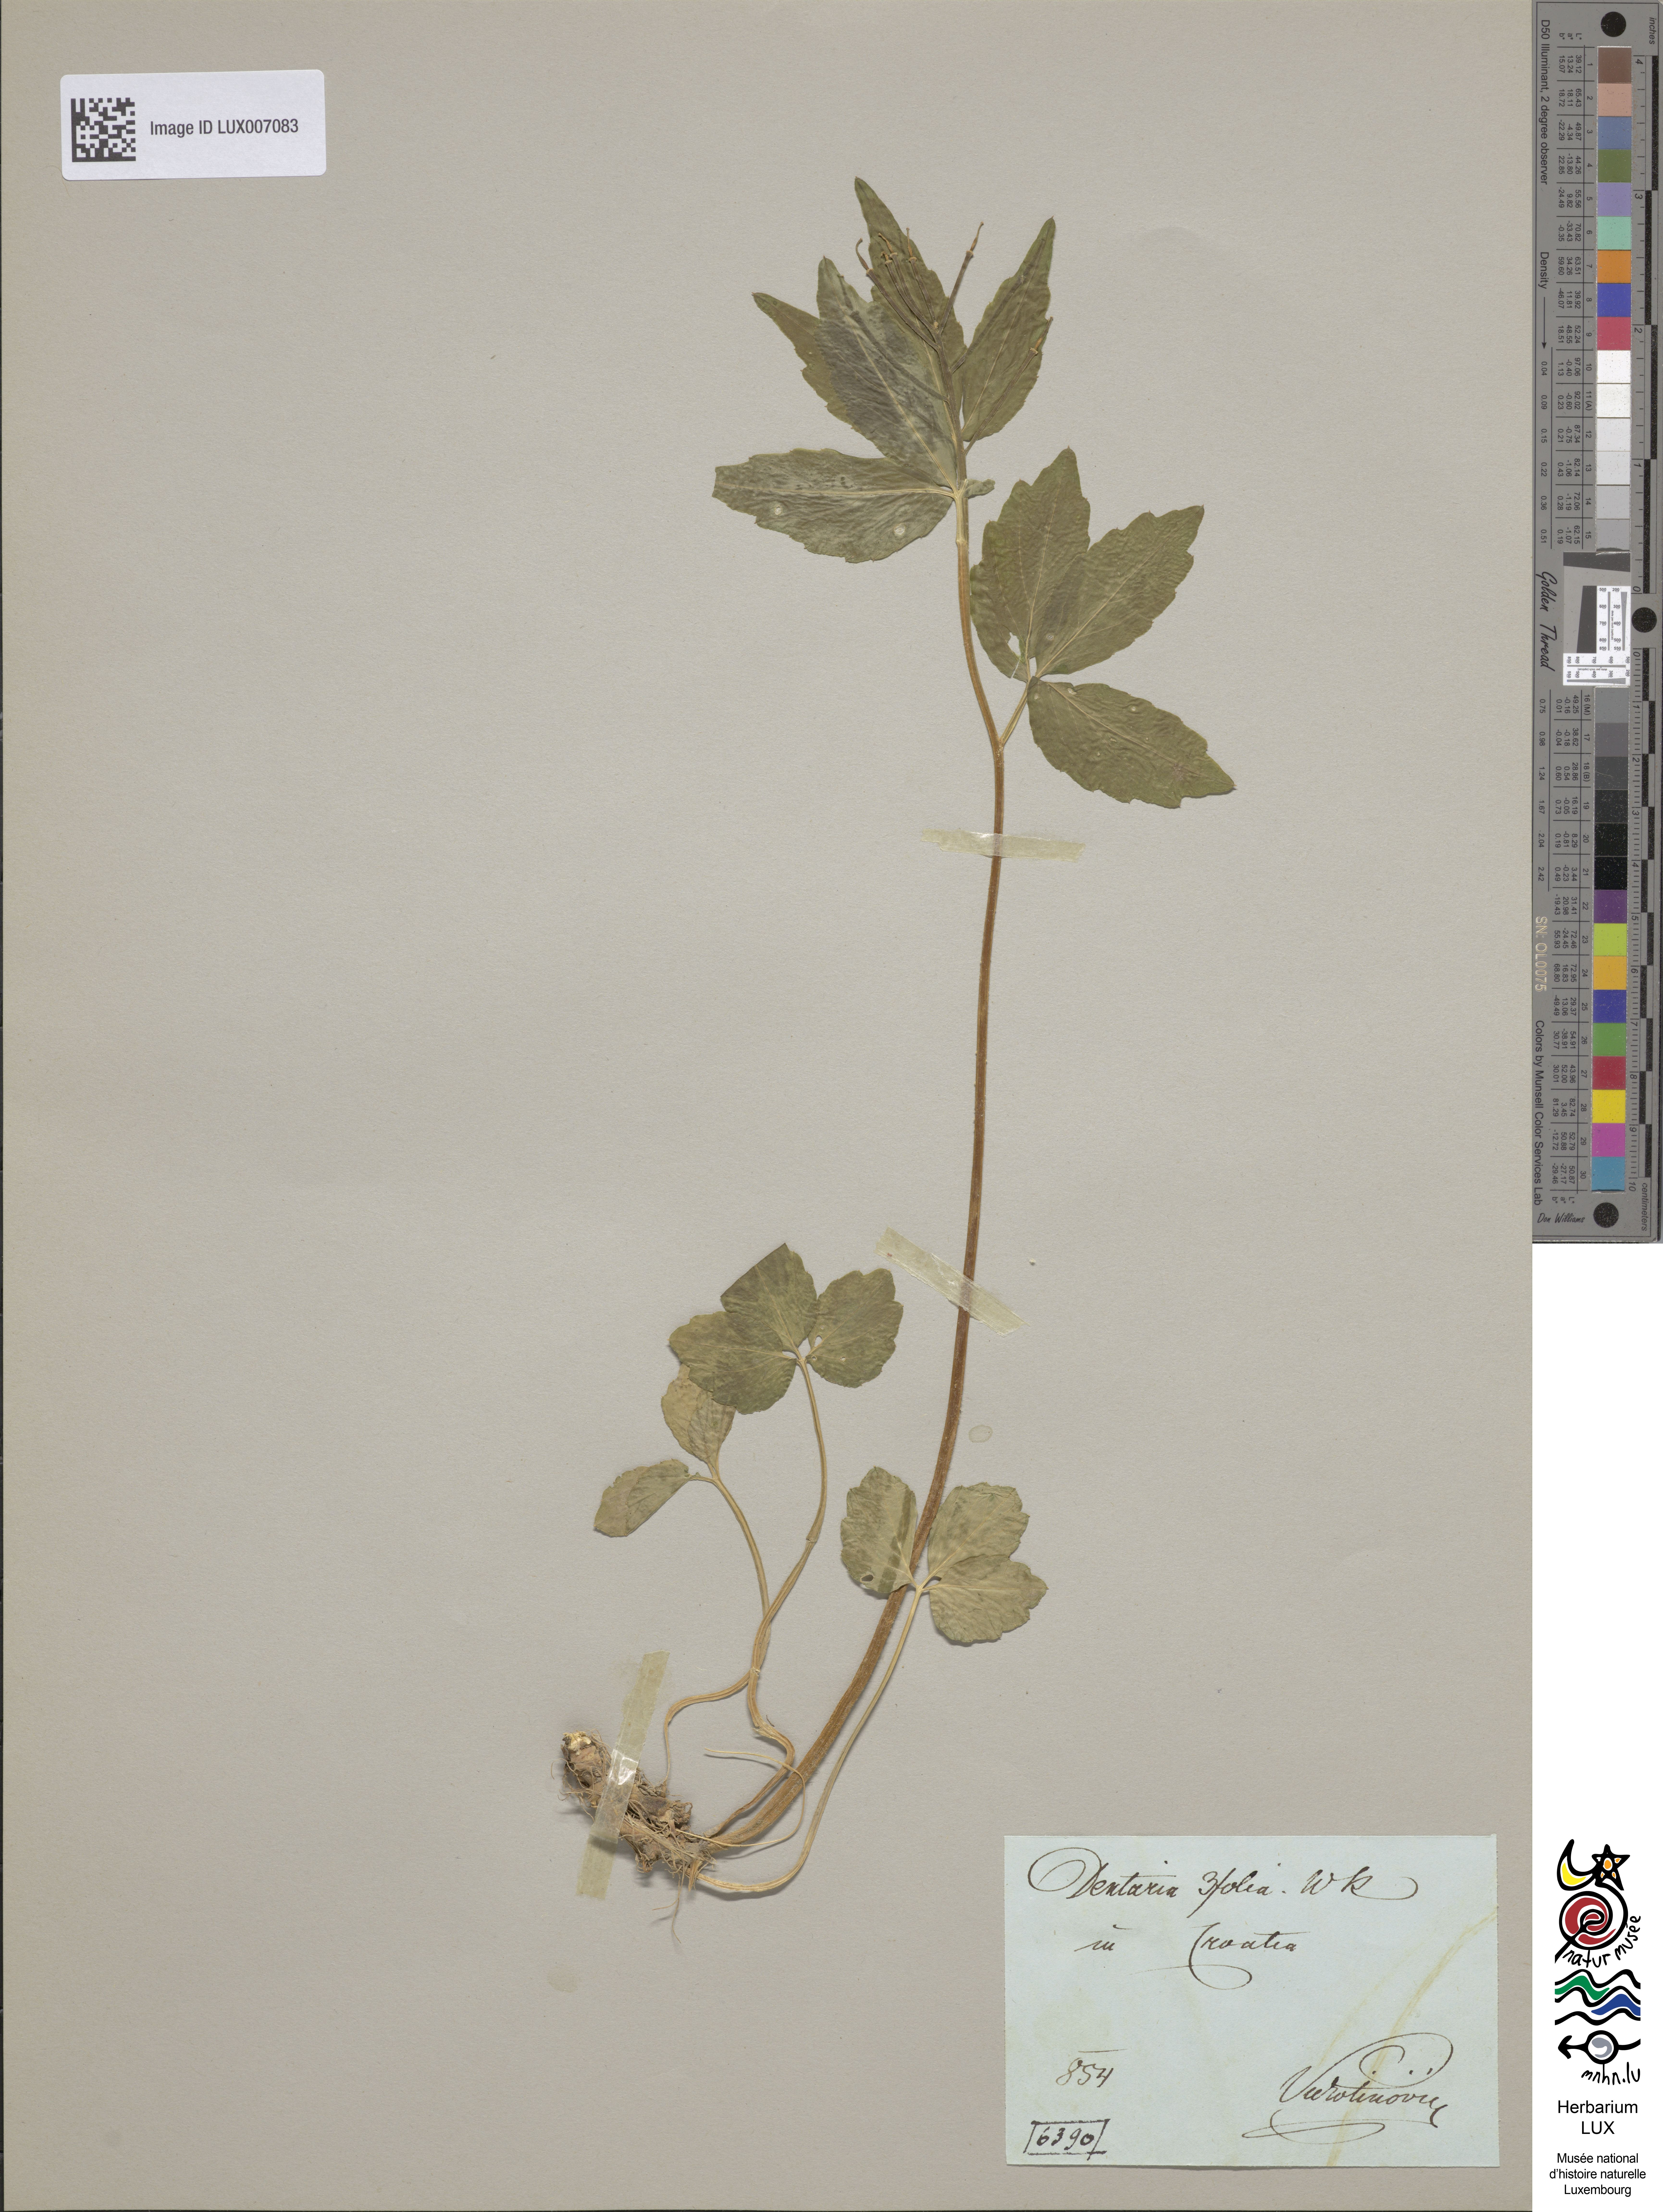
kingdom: Plantae
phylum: Tracheophyta
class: Magnoliopsida
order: Brassicales
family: Brassicaceae
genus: Cardamine
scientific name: Cardamine waldsteinii
